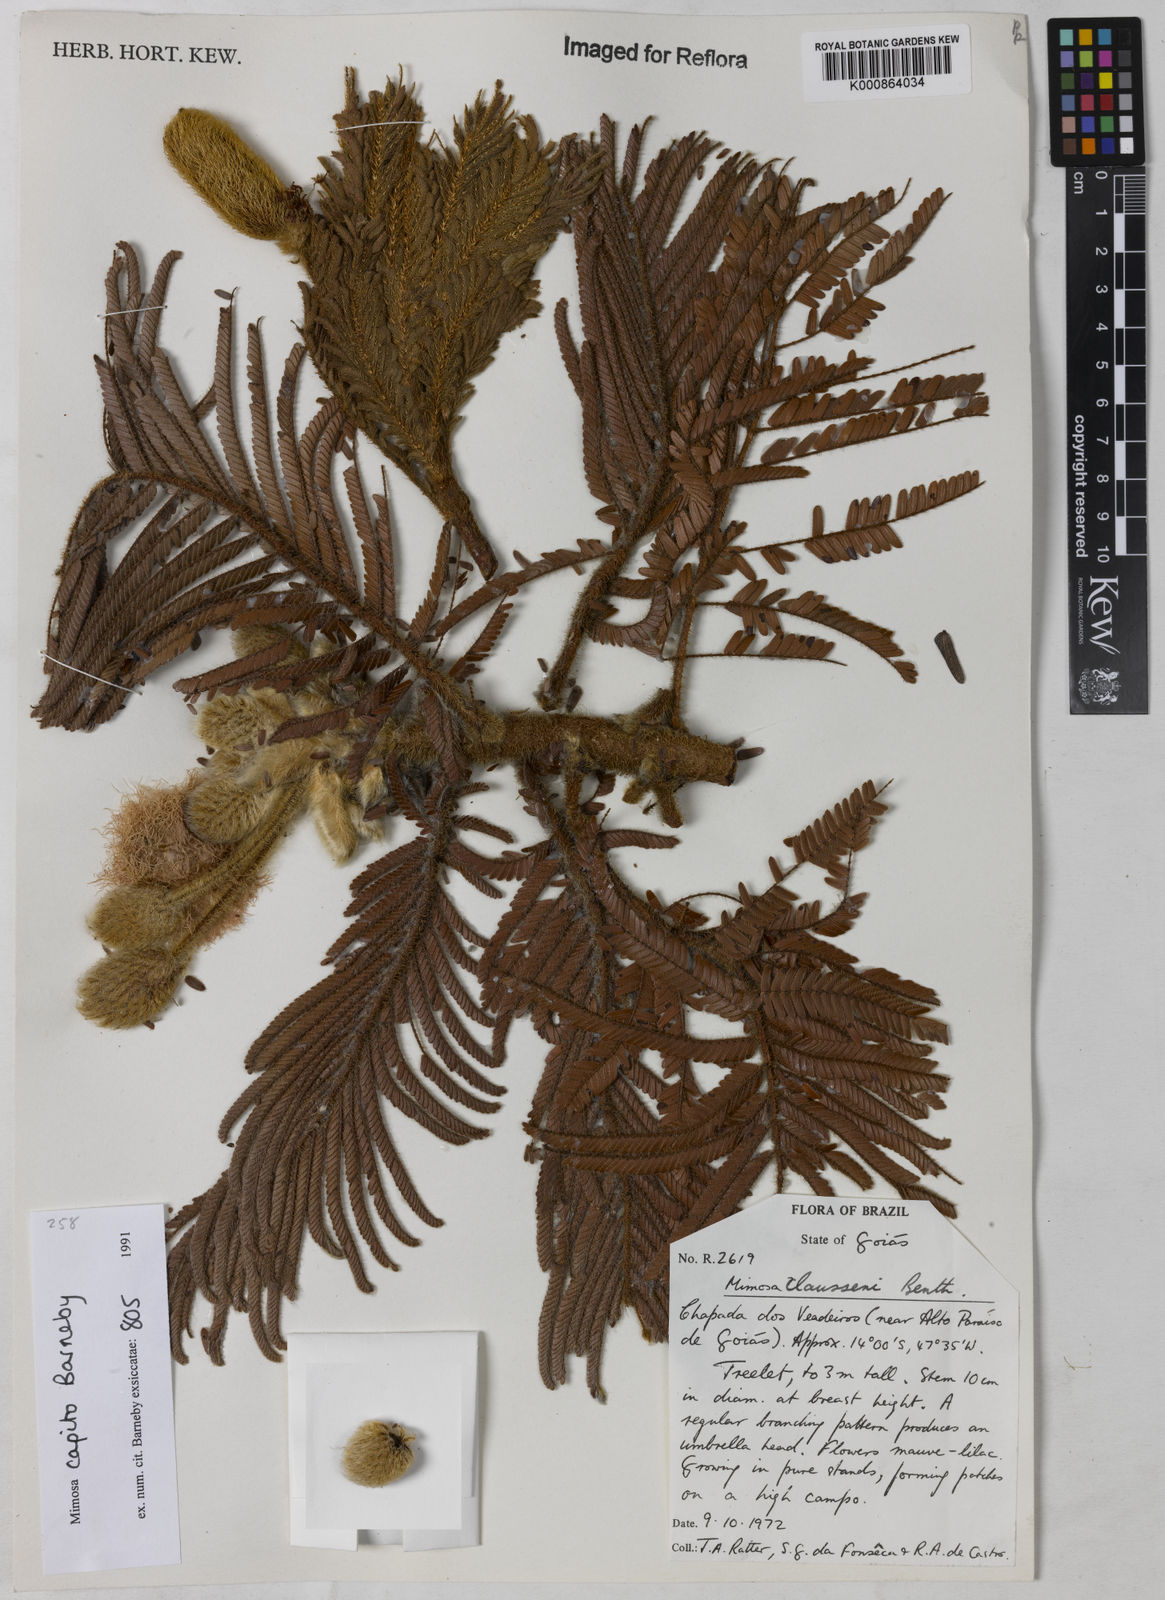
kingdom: Plantae
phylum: Tracheophyta
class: Magnoliopsida
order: Fabales
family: Fabaceae
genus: Mimosa
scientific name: Mimosa capito
